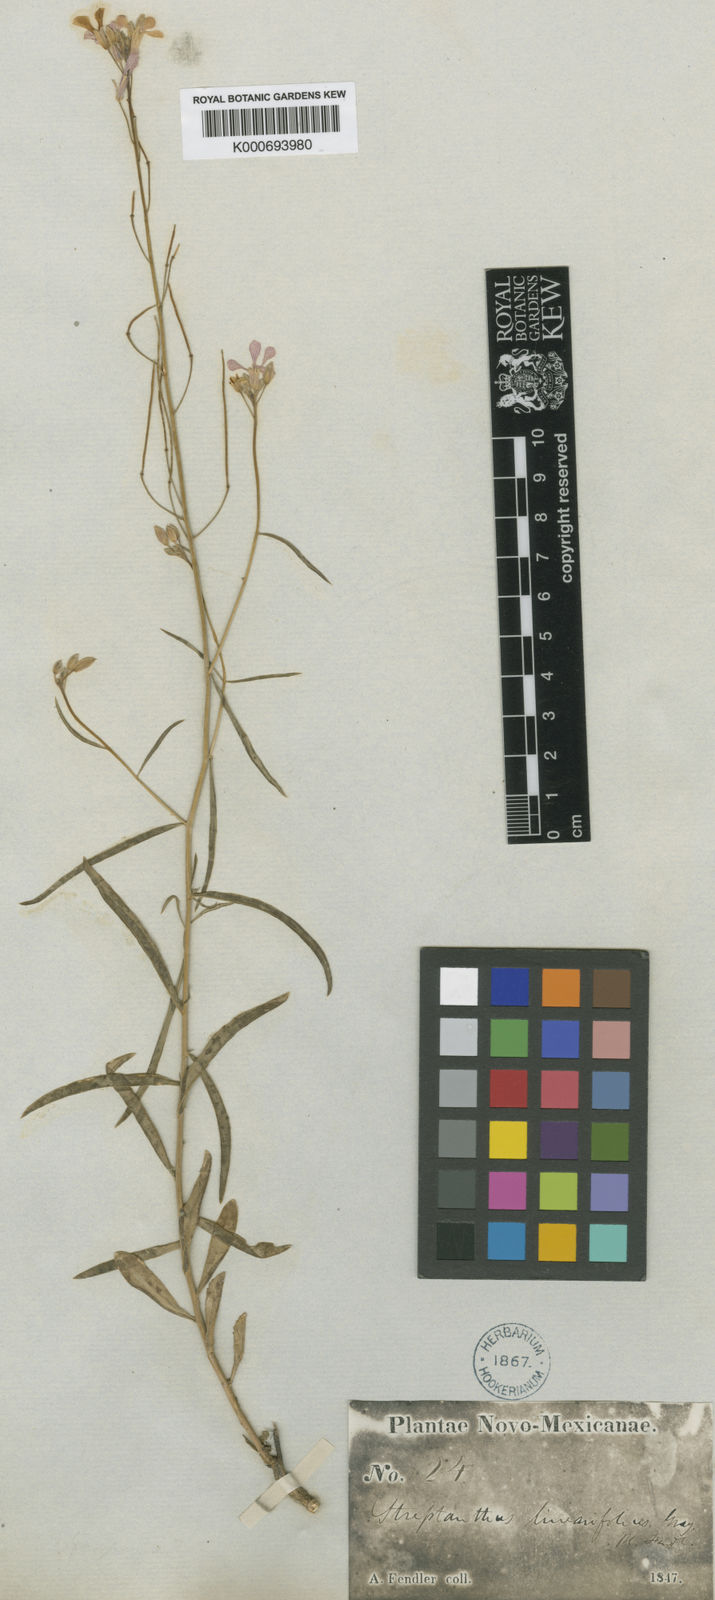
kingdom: Plantae
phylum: Tracheophyta
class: Magnoliopsida
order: Brassicales
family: Brassicaceae
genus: Hesperidanthus
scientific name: Hesperidanthus linearifolius
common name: Slim-leaf plains mustard
